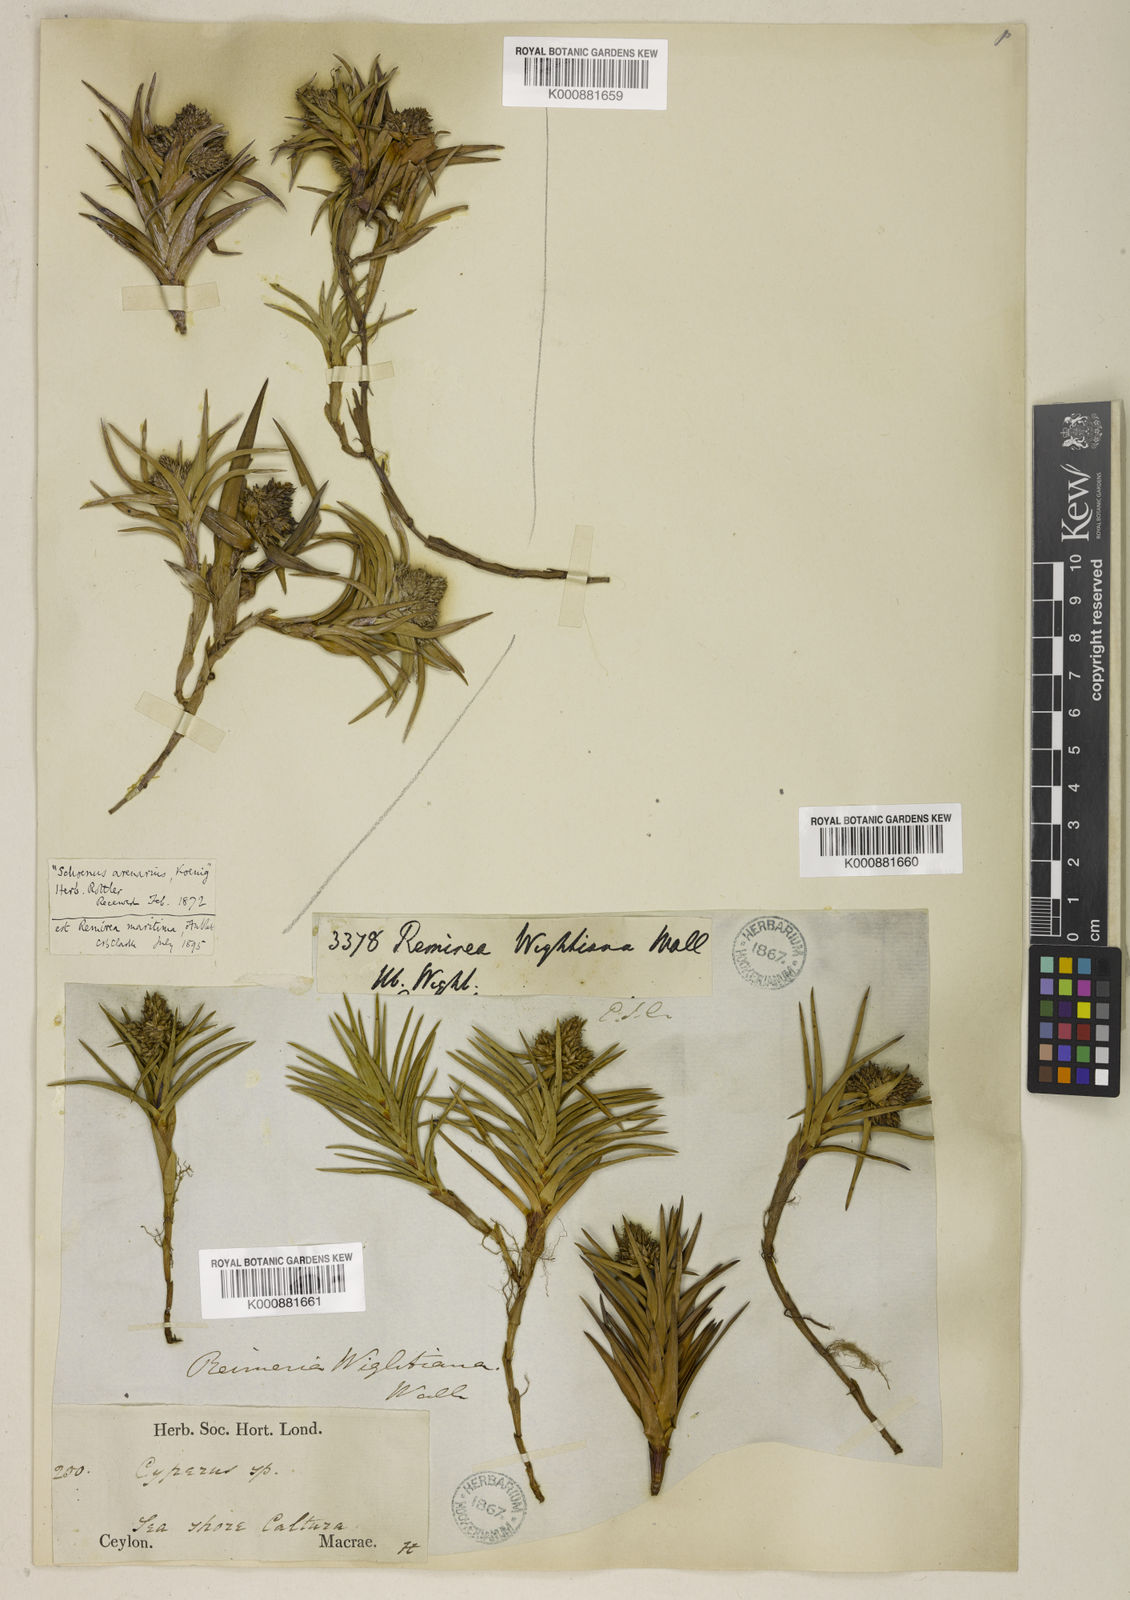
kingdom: Plantae
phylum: Tracheophyta
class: Liliopsida
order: Poales
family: Cyperaceae
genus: Cyperus
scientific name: Cyperus pedunculatus
